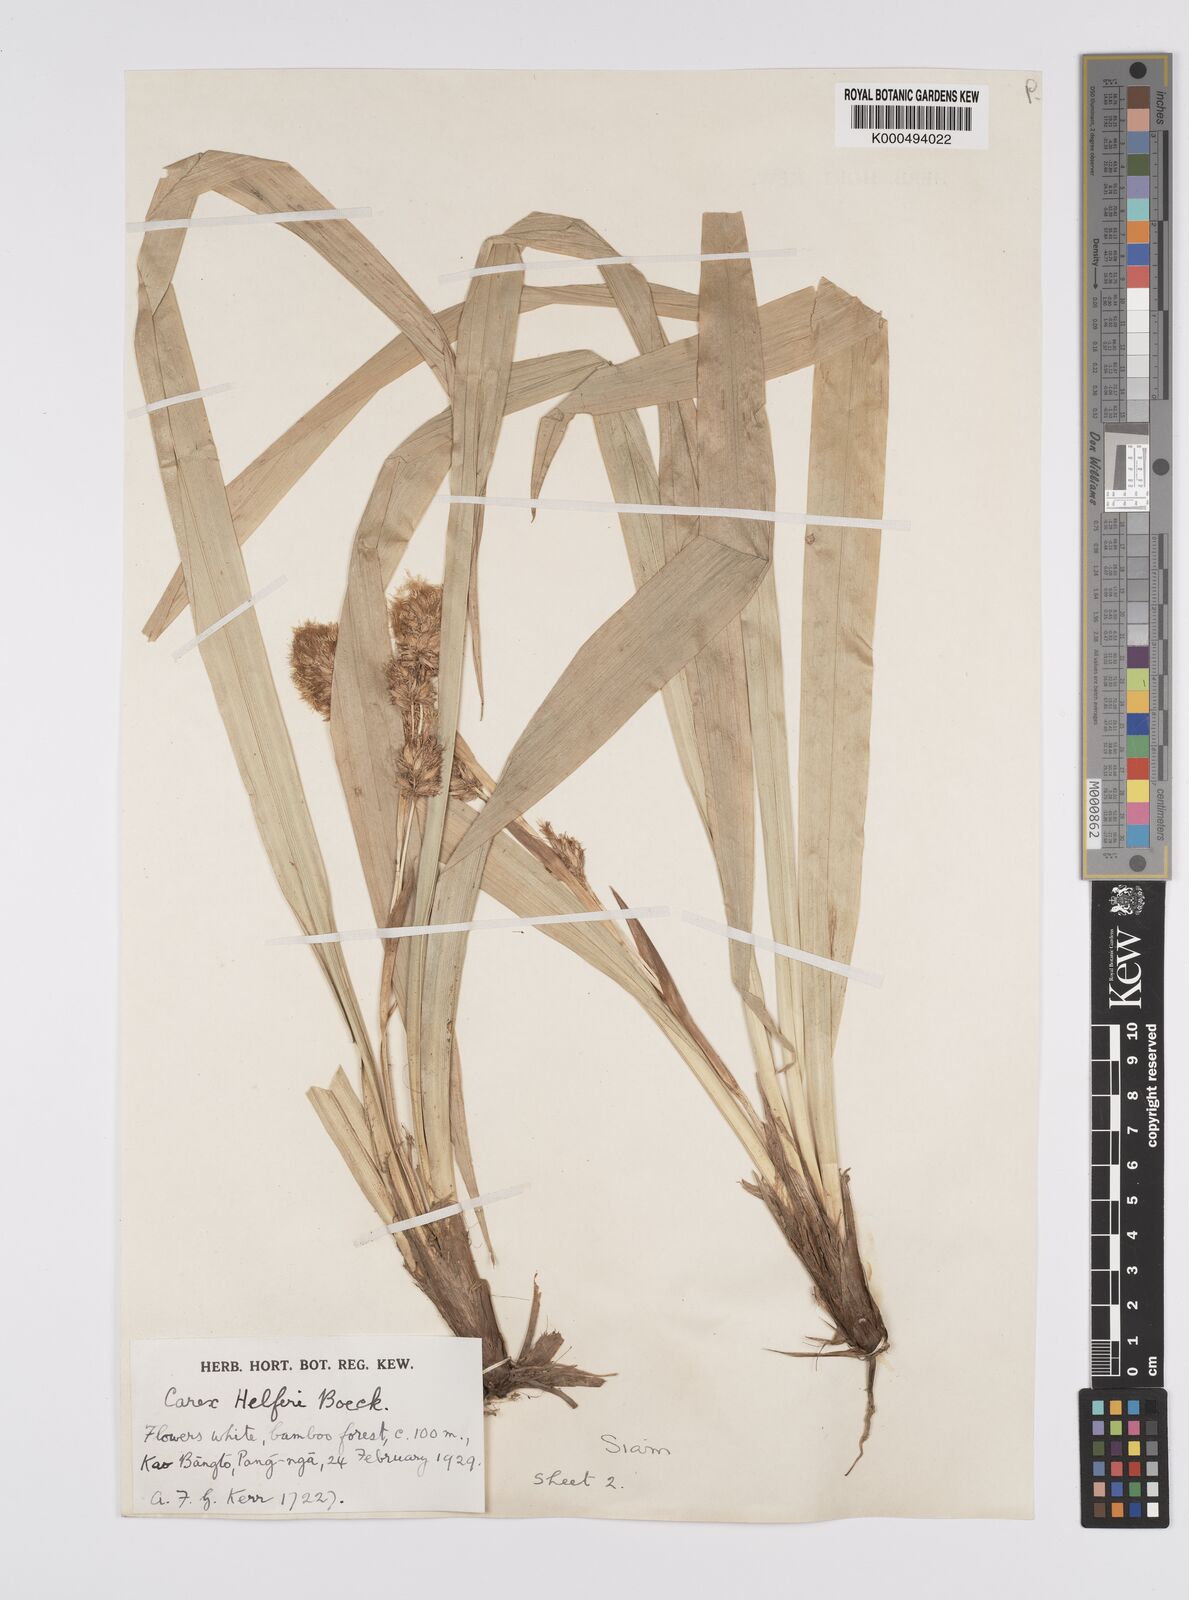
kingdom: Plantae
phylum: Tracheophyta
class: Liliopsida
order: Poales
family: Cyperaceae
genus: Carex
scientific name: Carex helferi
